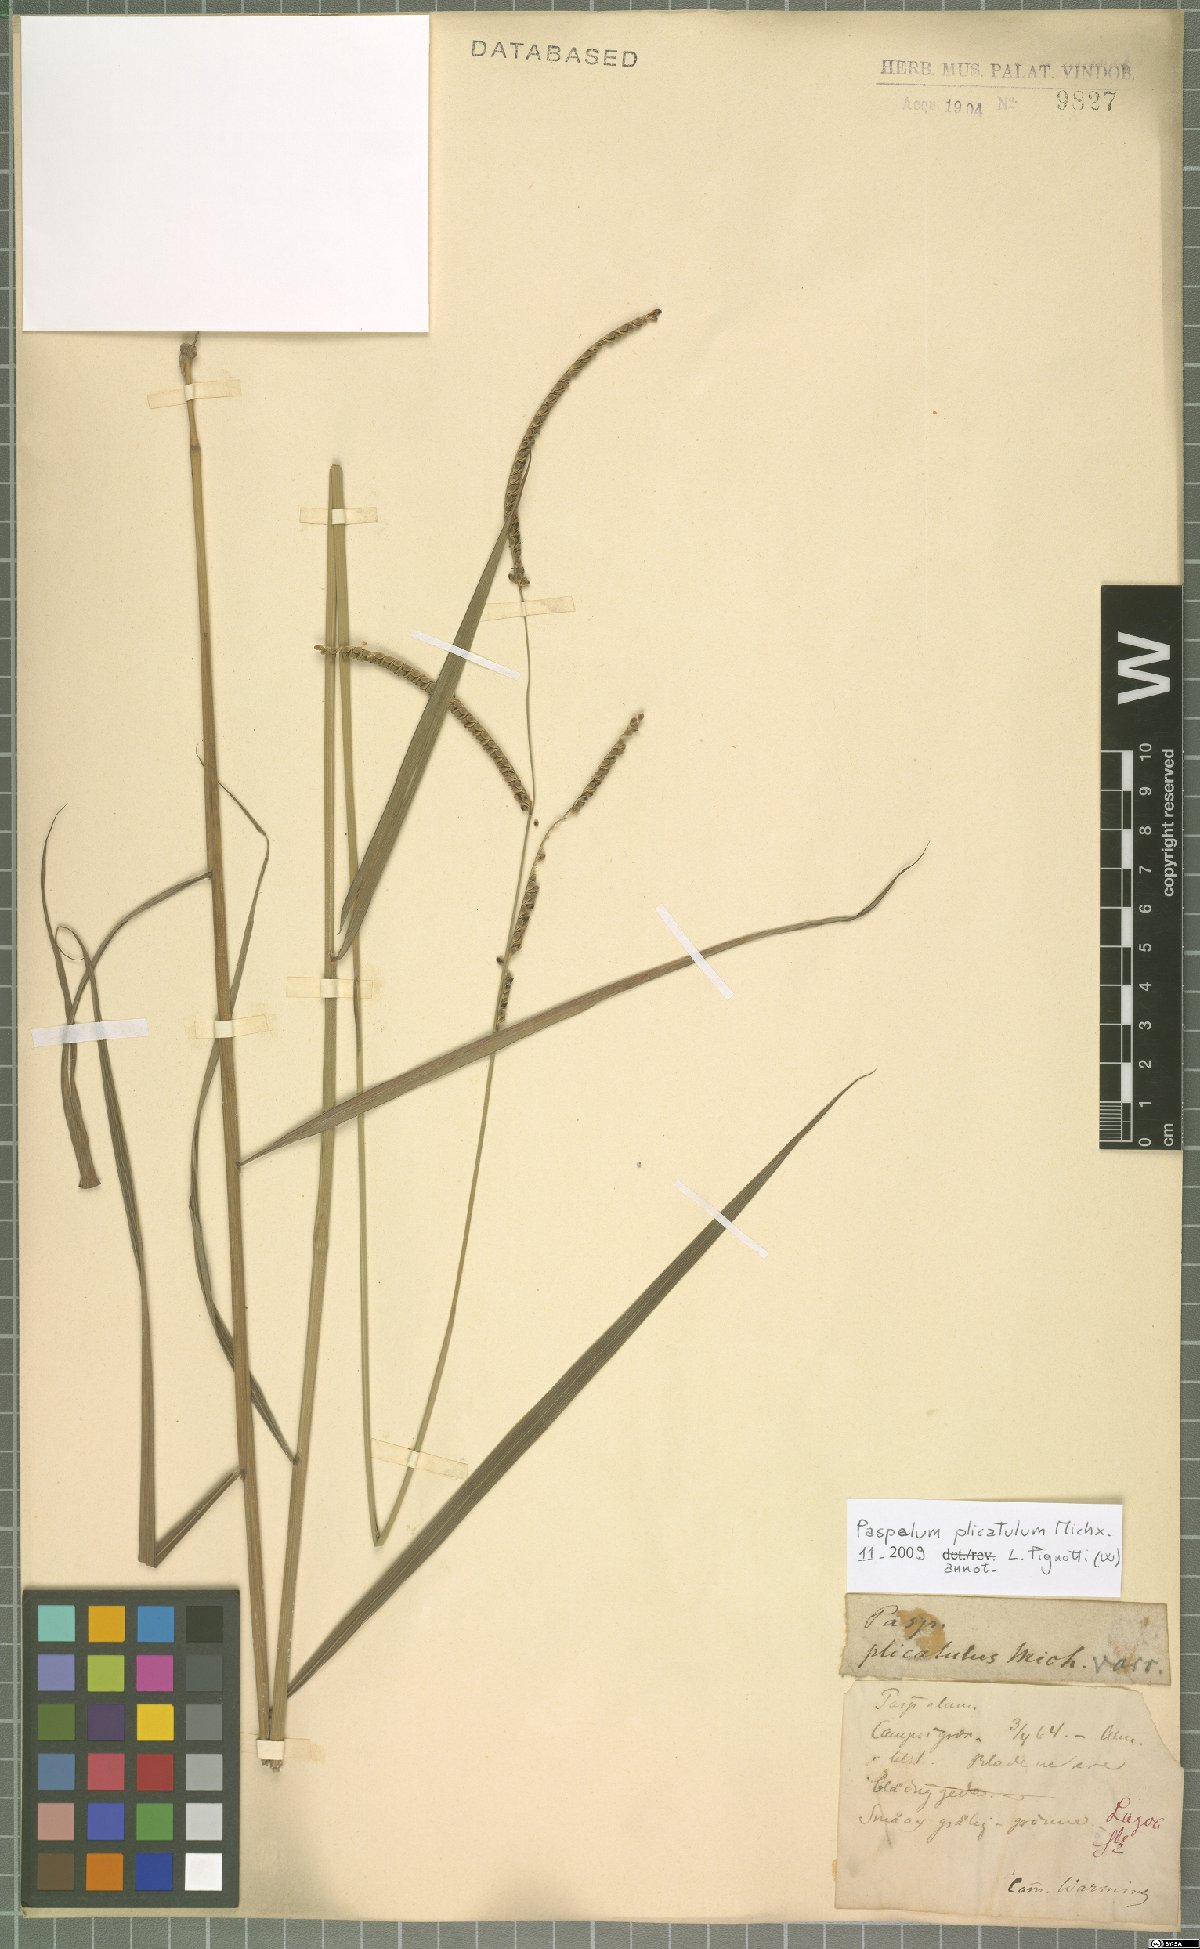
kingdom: Plantae
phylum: Tracheophyta
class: Liliopsida
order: Poales
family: Poaceae
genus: Paspalum
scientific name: Paspalum geminiflorum
